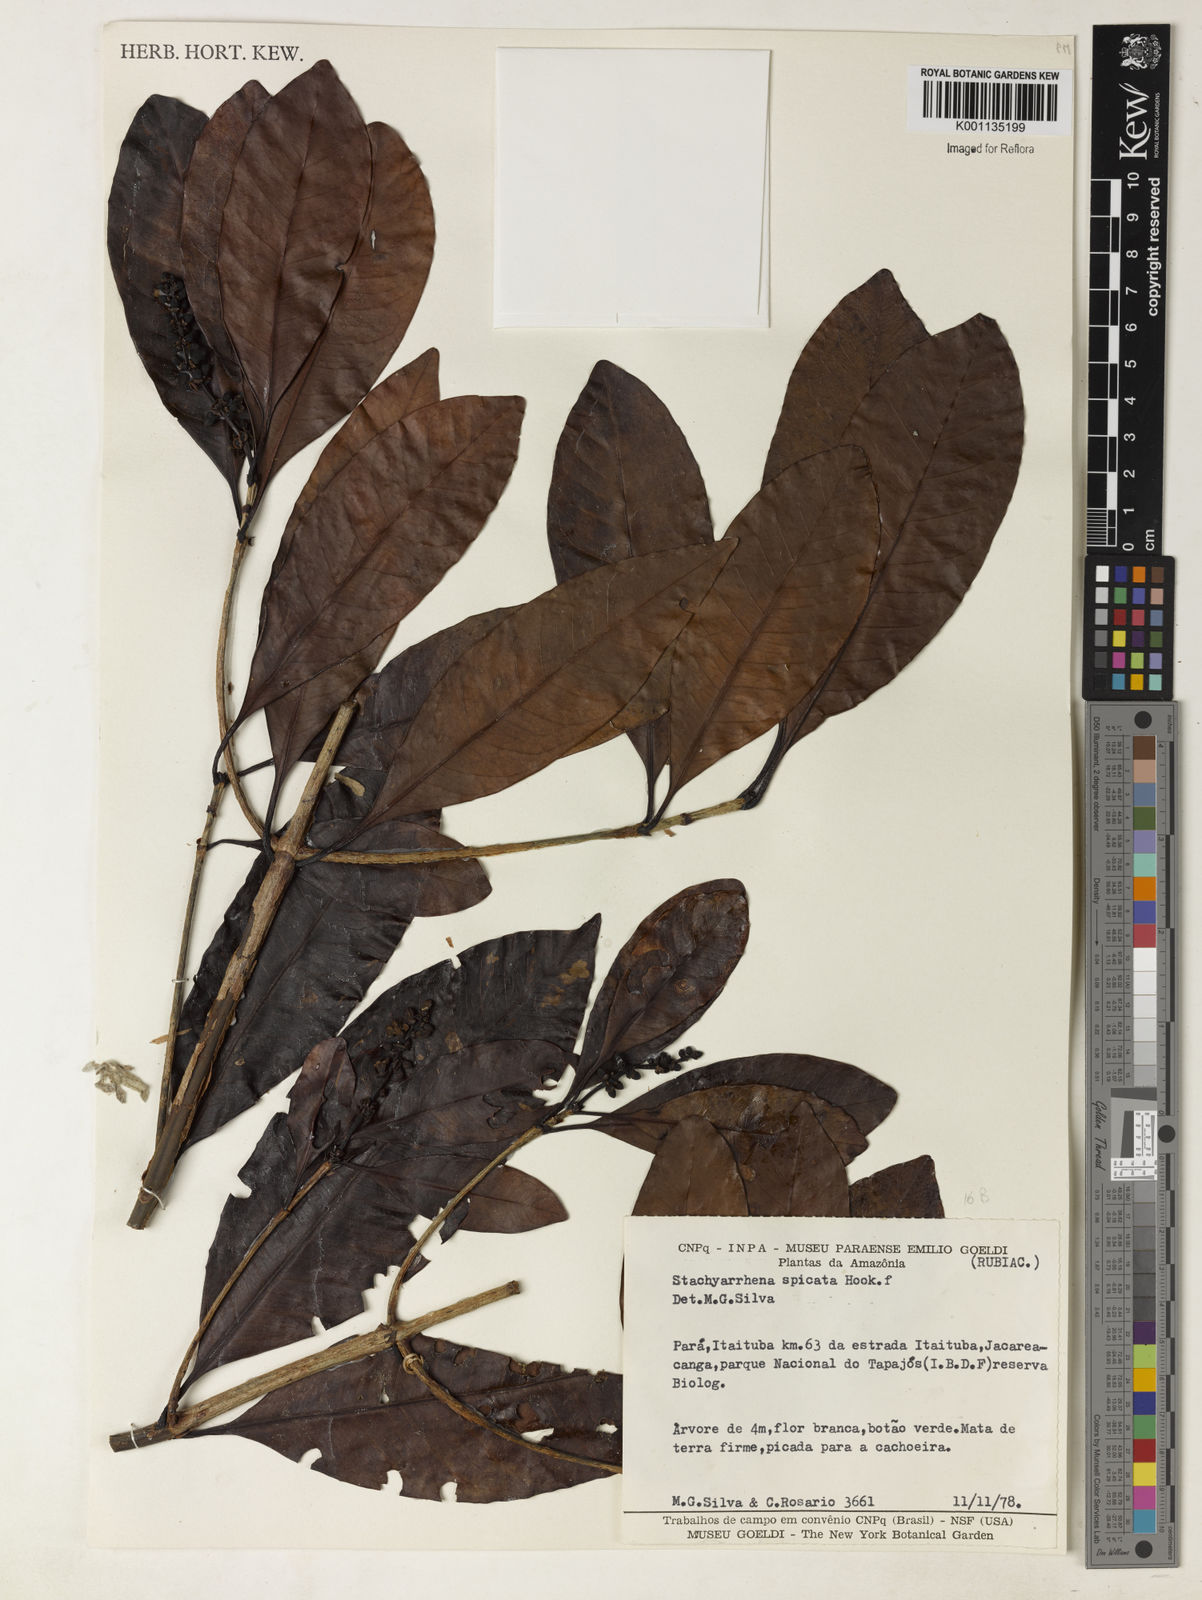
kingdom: Plantae
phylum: Tracheophyta
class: Magnoliopsida
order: Gentianales
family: Rubiaceae
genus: Stachyarrhena
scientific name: Stachyarrhena spicata
